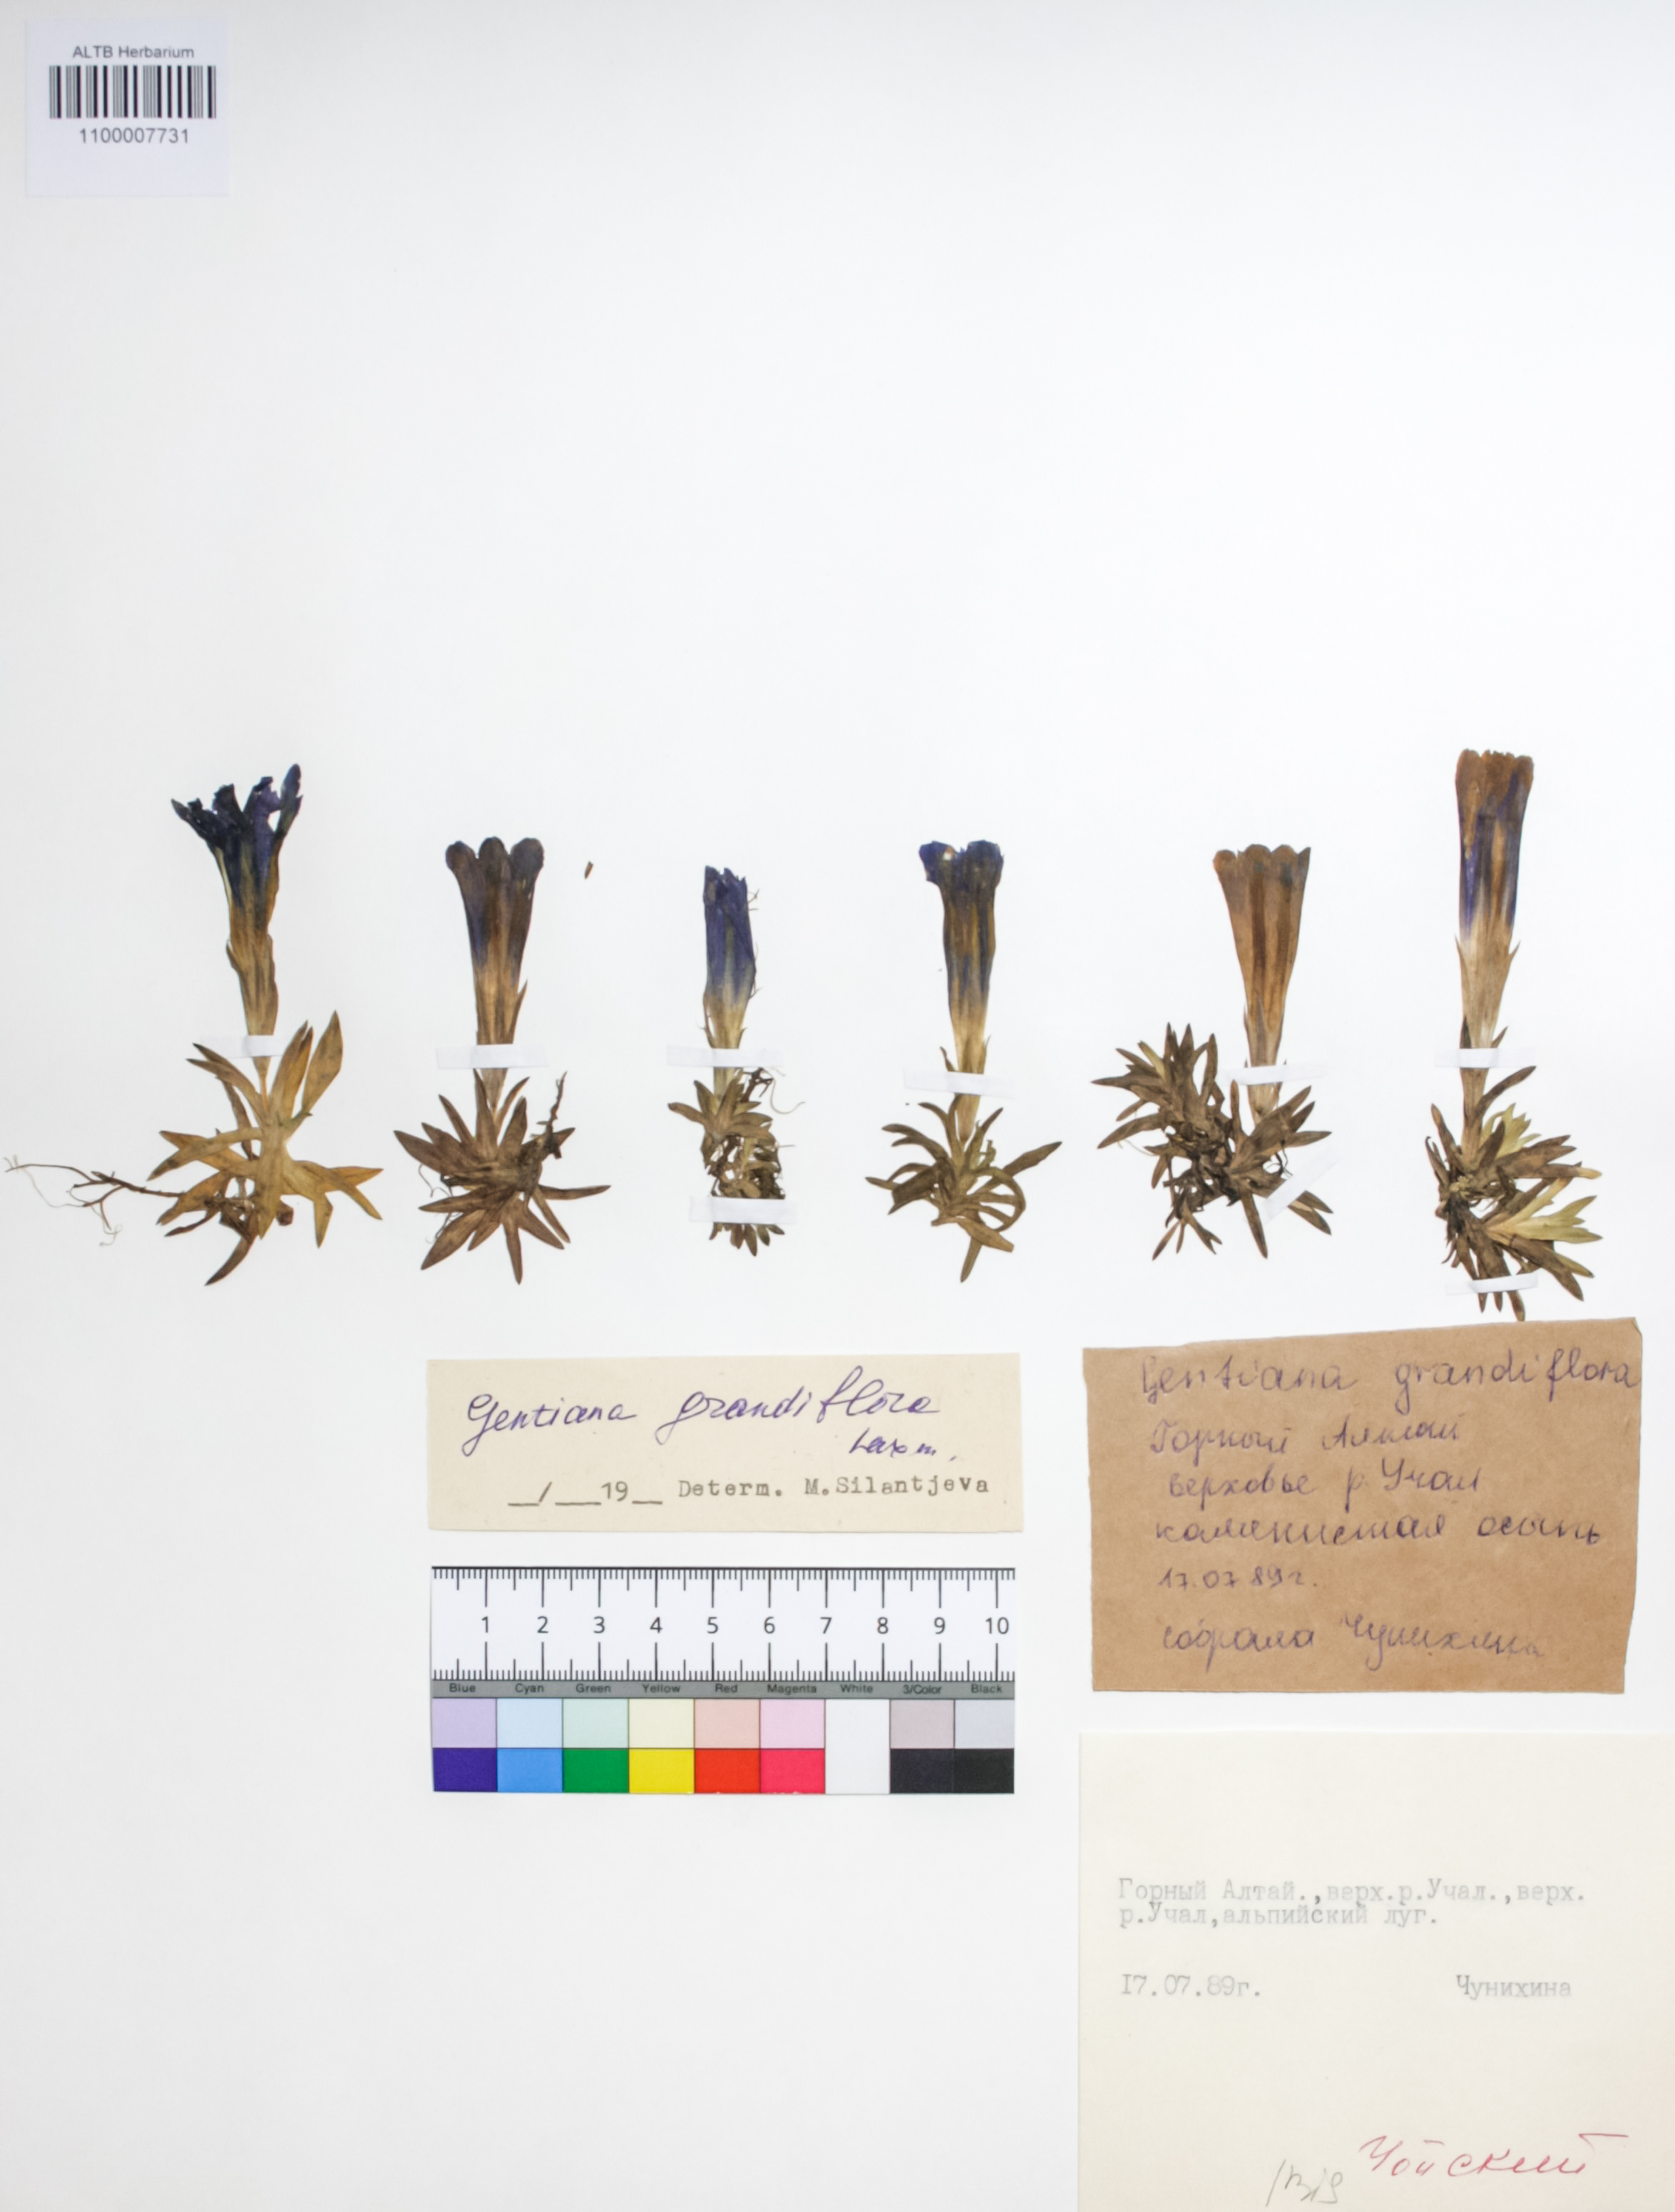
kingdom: Plantae
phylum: Tracheophyta
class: Magnoliopsida
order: Gentianales
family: Gentianaceae
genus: Gentiana
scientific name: Gentiana grandiflora
